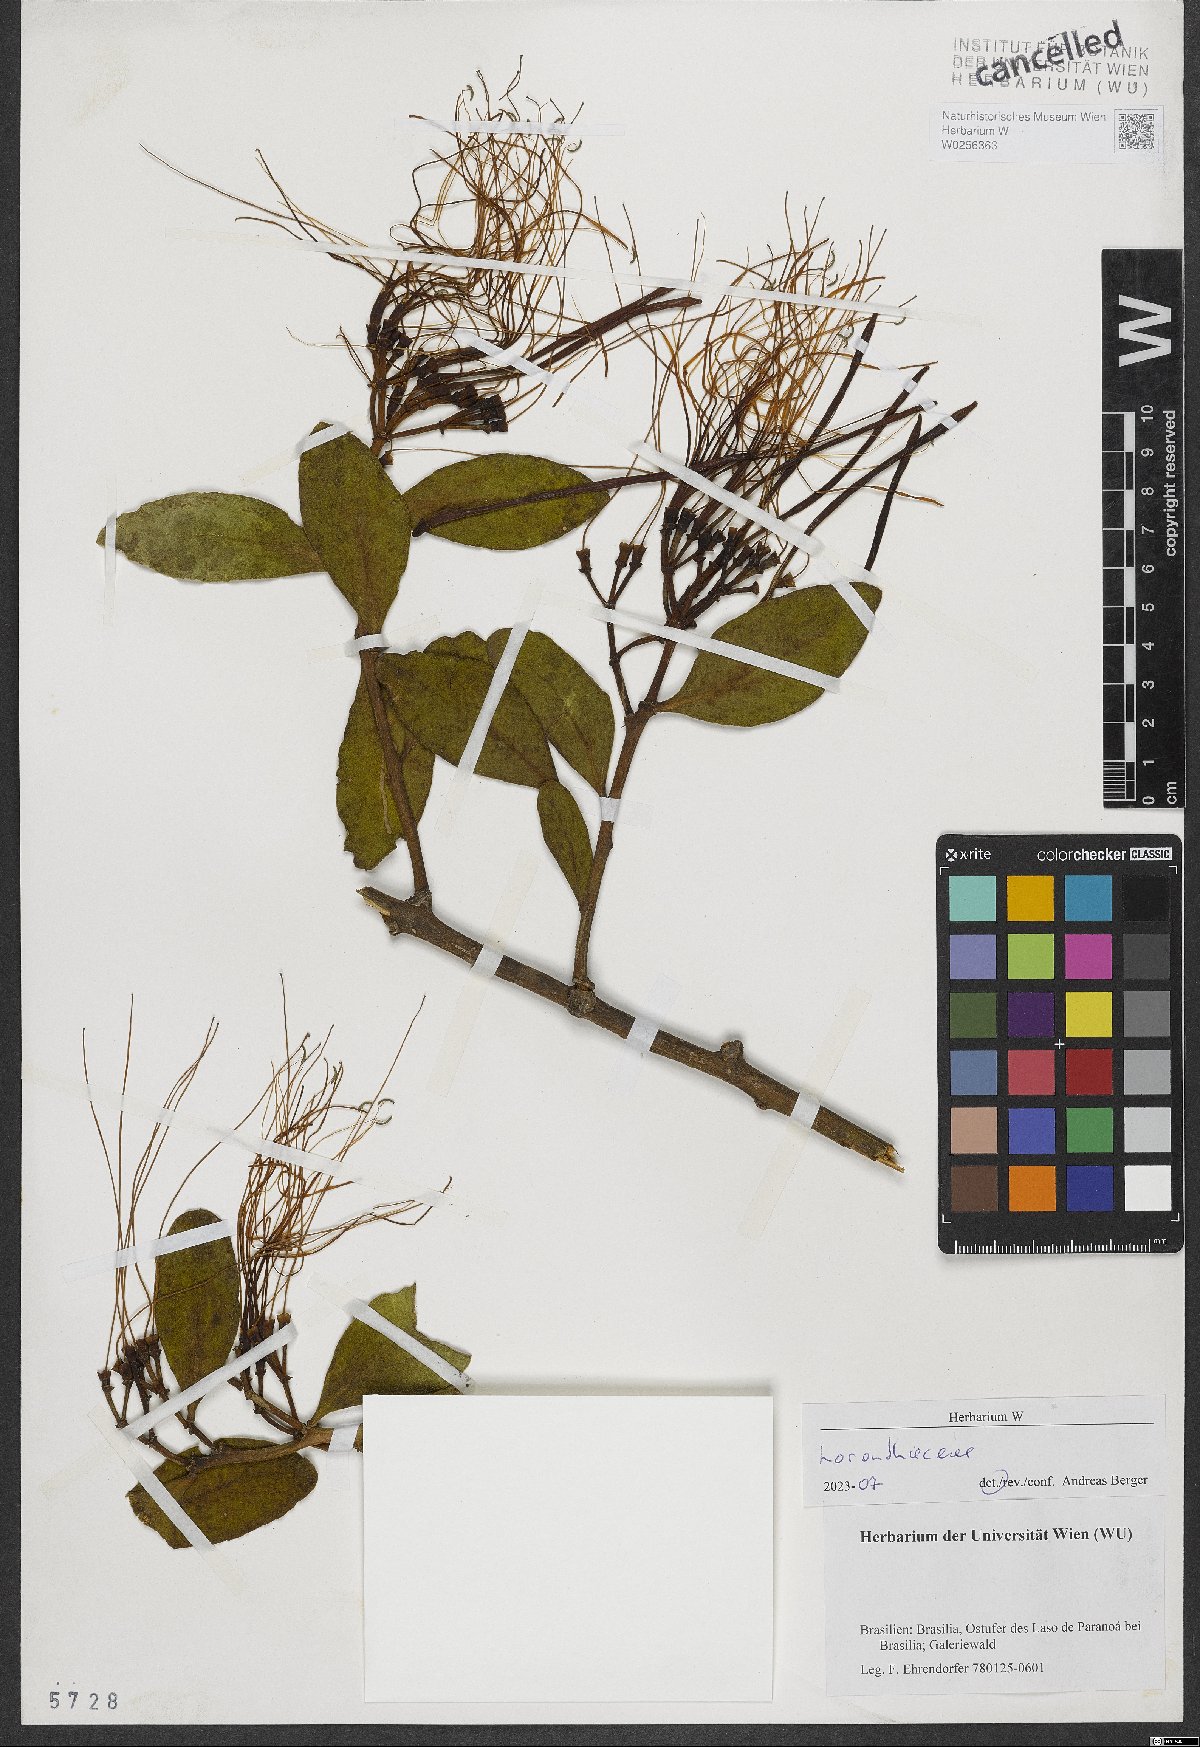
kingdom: Plantae
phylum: Tracheophyta
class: Magnoliopsida
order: Santalales
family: Loranthaceae
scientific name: Loranthaceae
